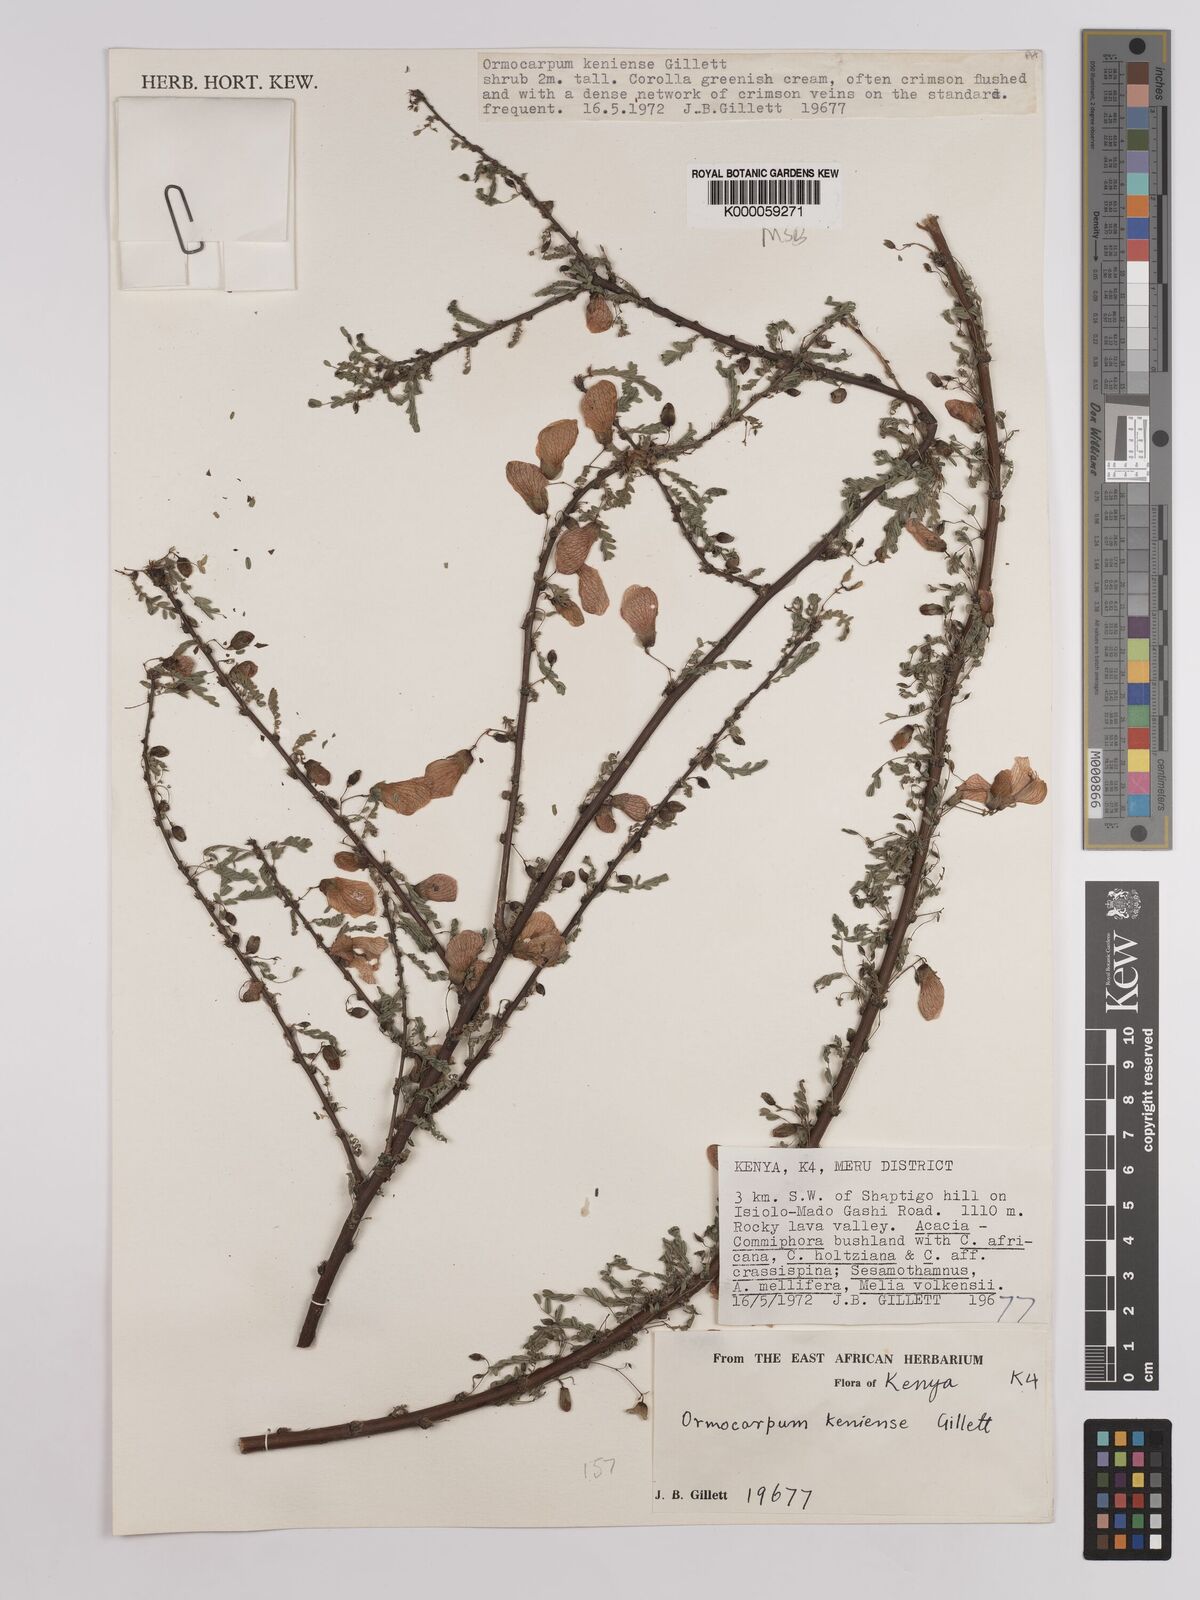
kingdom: Plantae
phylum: Tracheophyta
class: Magnoliopsida
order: Fabales
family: Fabaceae
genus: Ormocarpum
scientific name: Ormocarpum keniense
